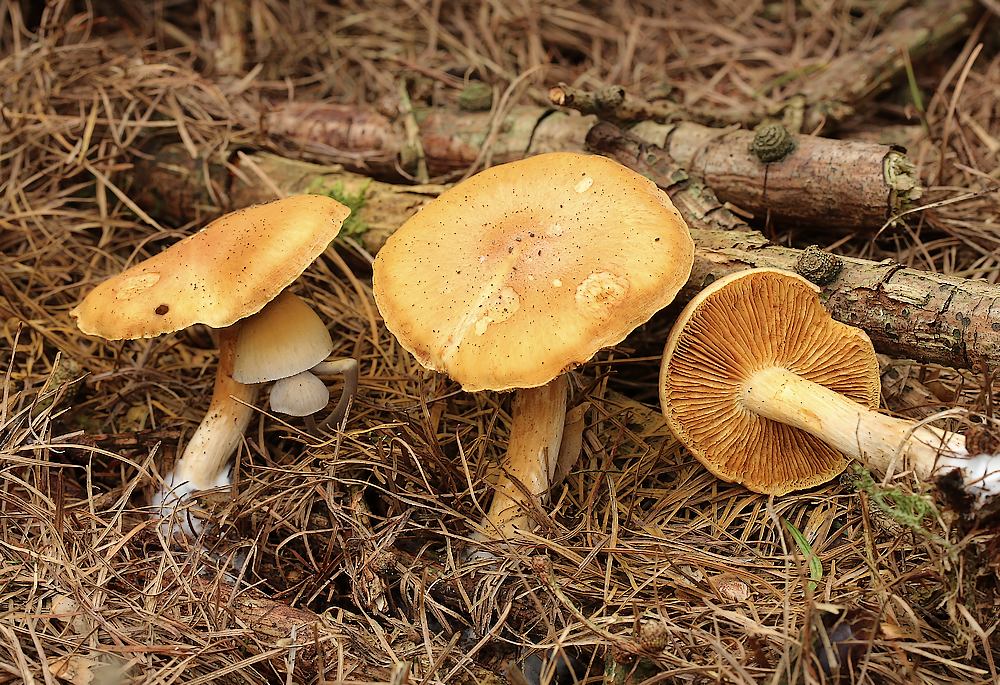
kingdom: Fungi
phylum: Basidiomycota
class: Agaricomycetes
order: Agaricales
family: Hymenogastraceae
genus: Gymnopilus
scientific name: Gymnopilus penetrans
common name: plettet flammehat
